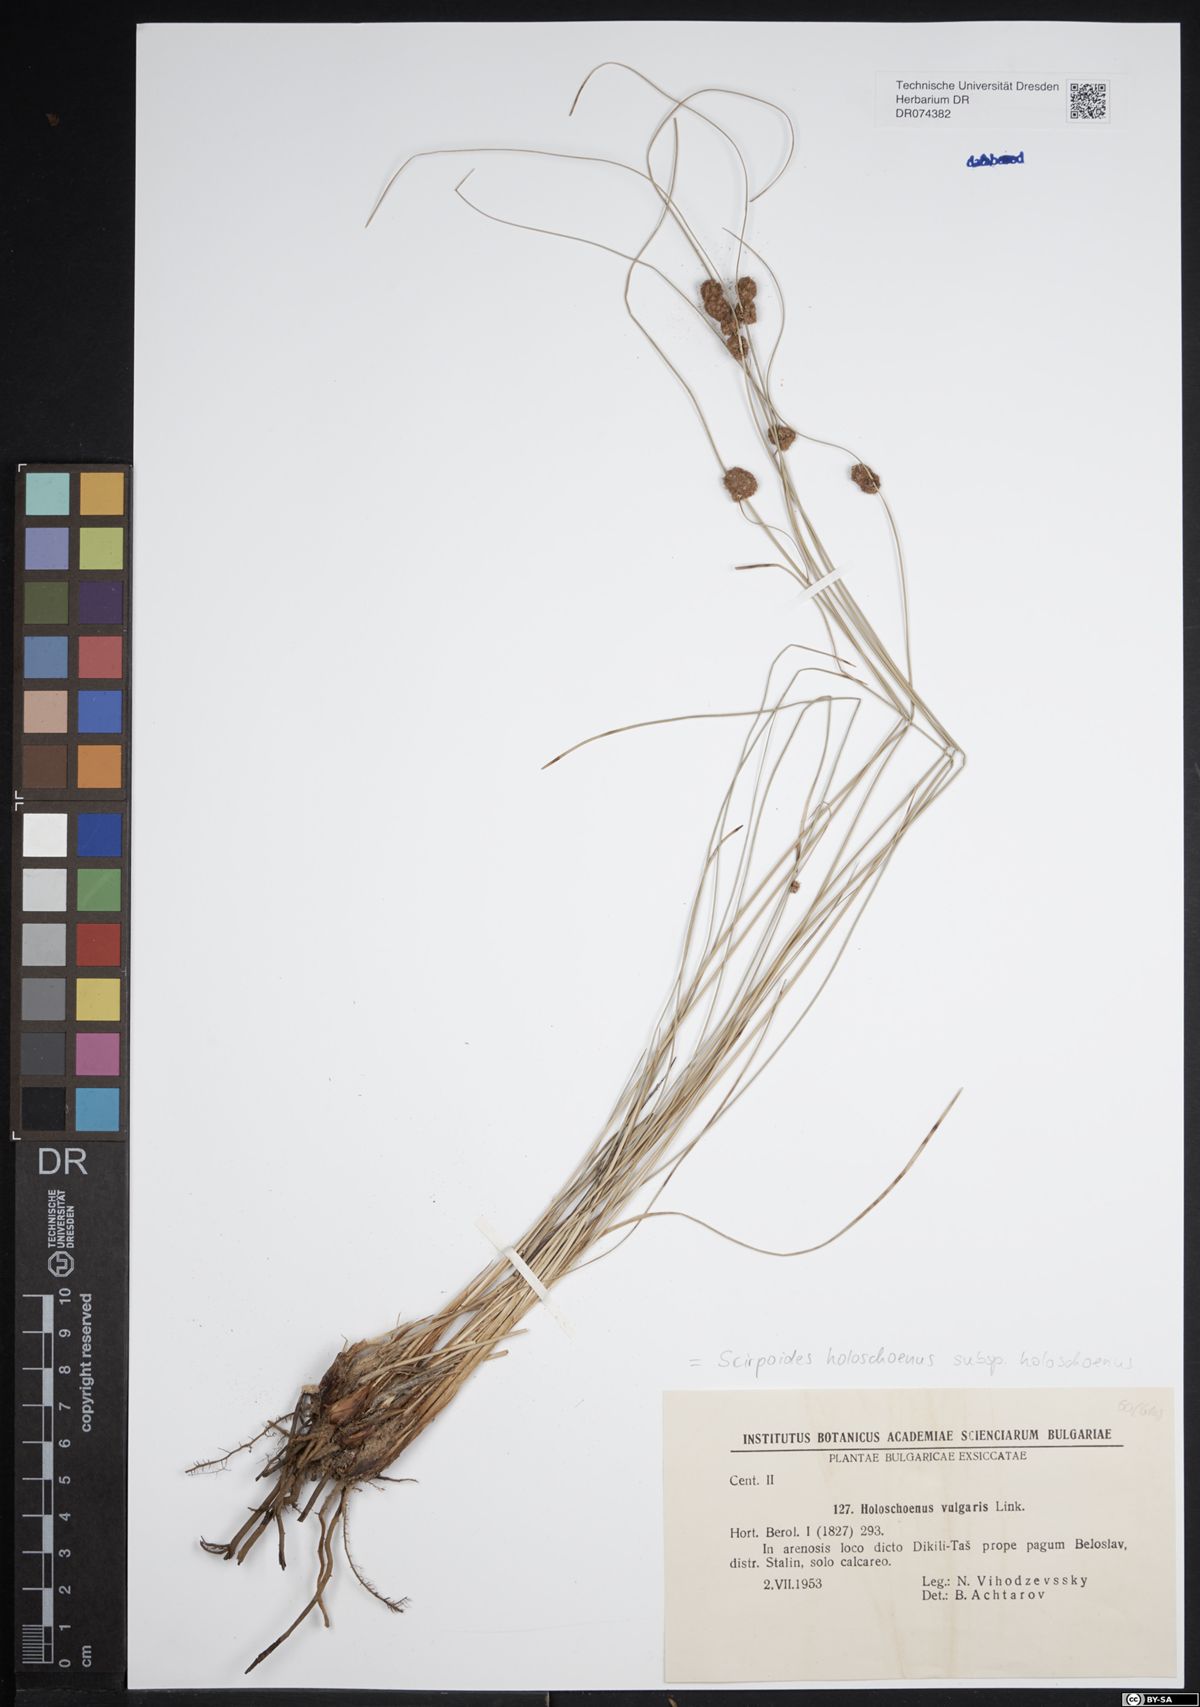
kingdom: Plantae
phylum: Tracheophyta
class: Liliopsida
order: Poales
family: Cyperaceae
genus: Scirpoides
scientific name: Scirpoides holoschoenus
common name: Round-headed club-rush
